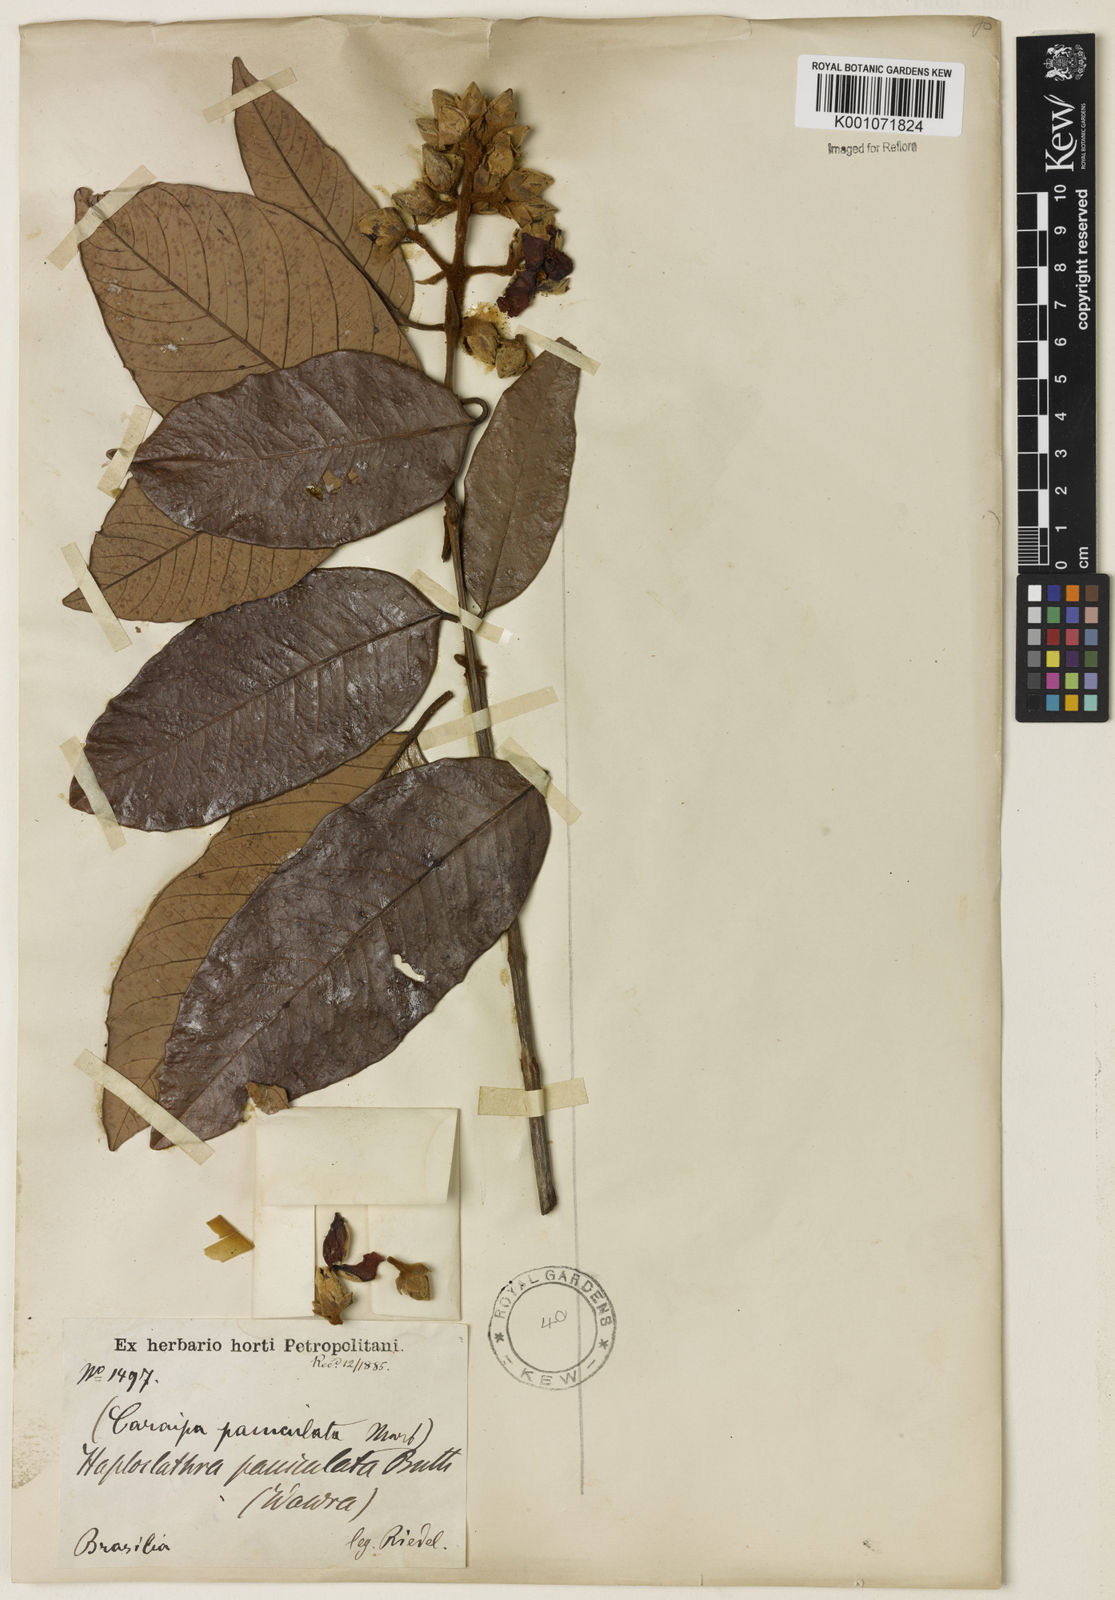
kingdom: Plantae
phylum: Tracheophyta
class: Magnoliopsida
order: Malpighiales
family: Calophyllaceae
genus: Haploclathra
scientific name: Haploclathra paniculata
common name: Red-wood
